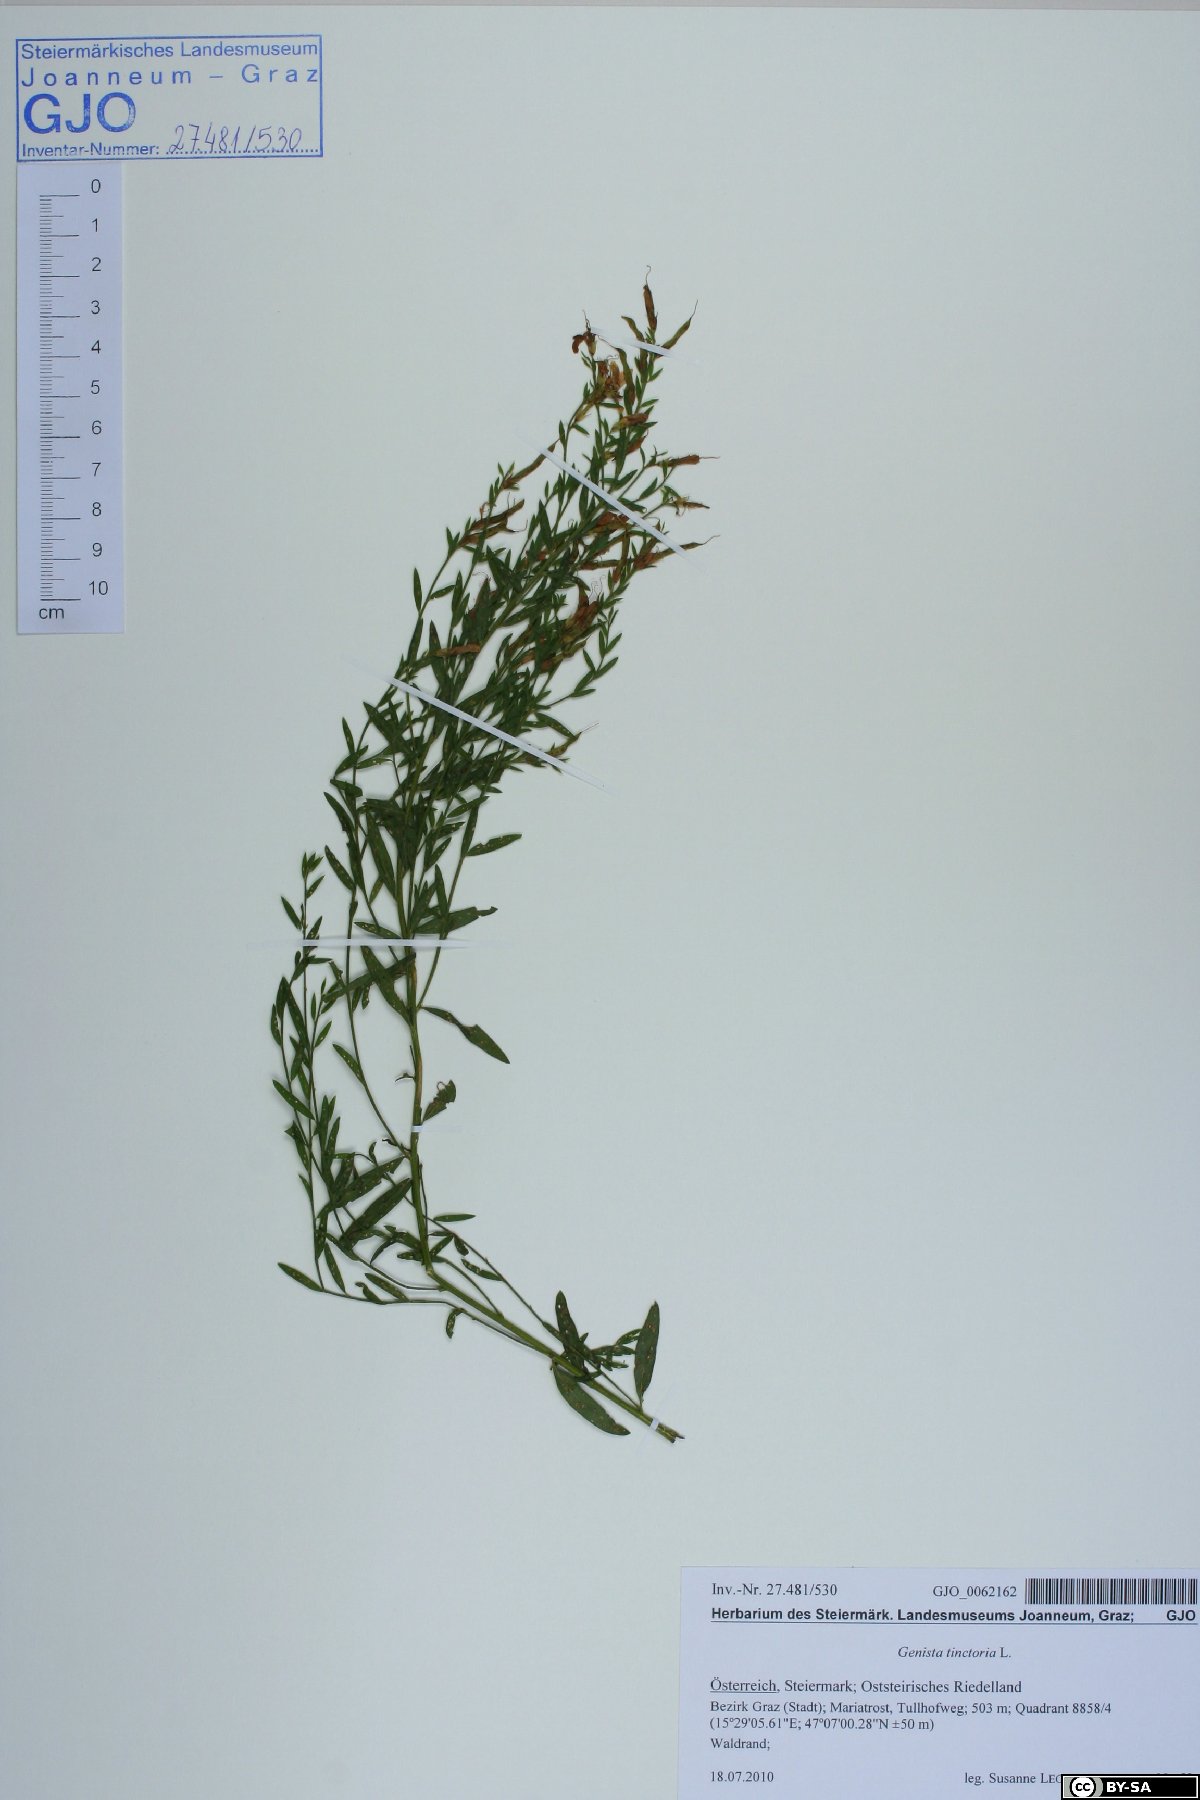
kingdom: Plantae
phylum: Tracheophyta
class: Magnoliopsida
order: Fabales
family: Fabaceae
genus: Genista
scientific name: Genista tinctoria
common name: Dyer's greenweed
